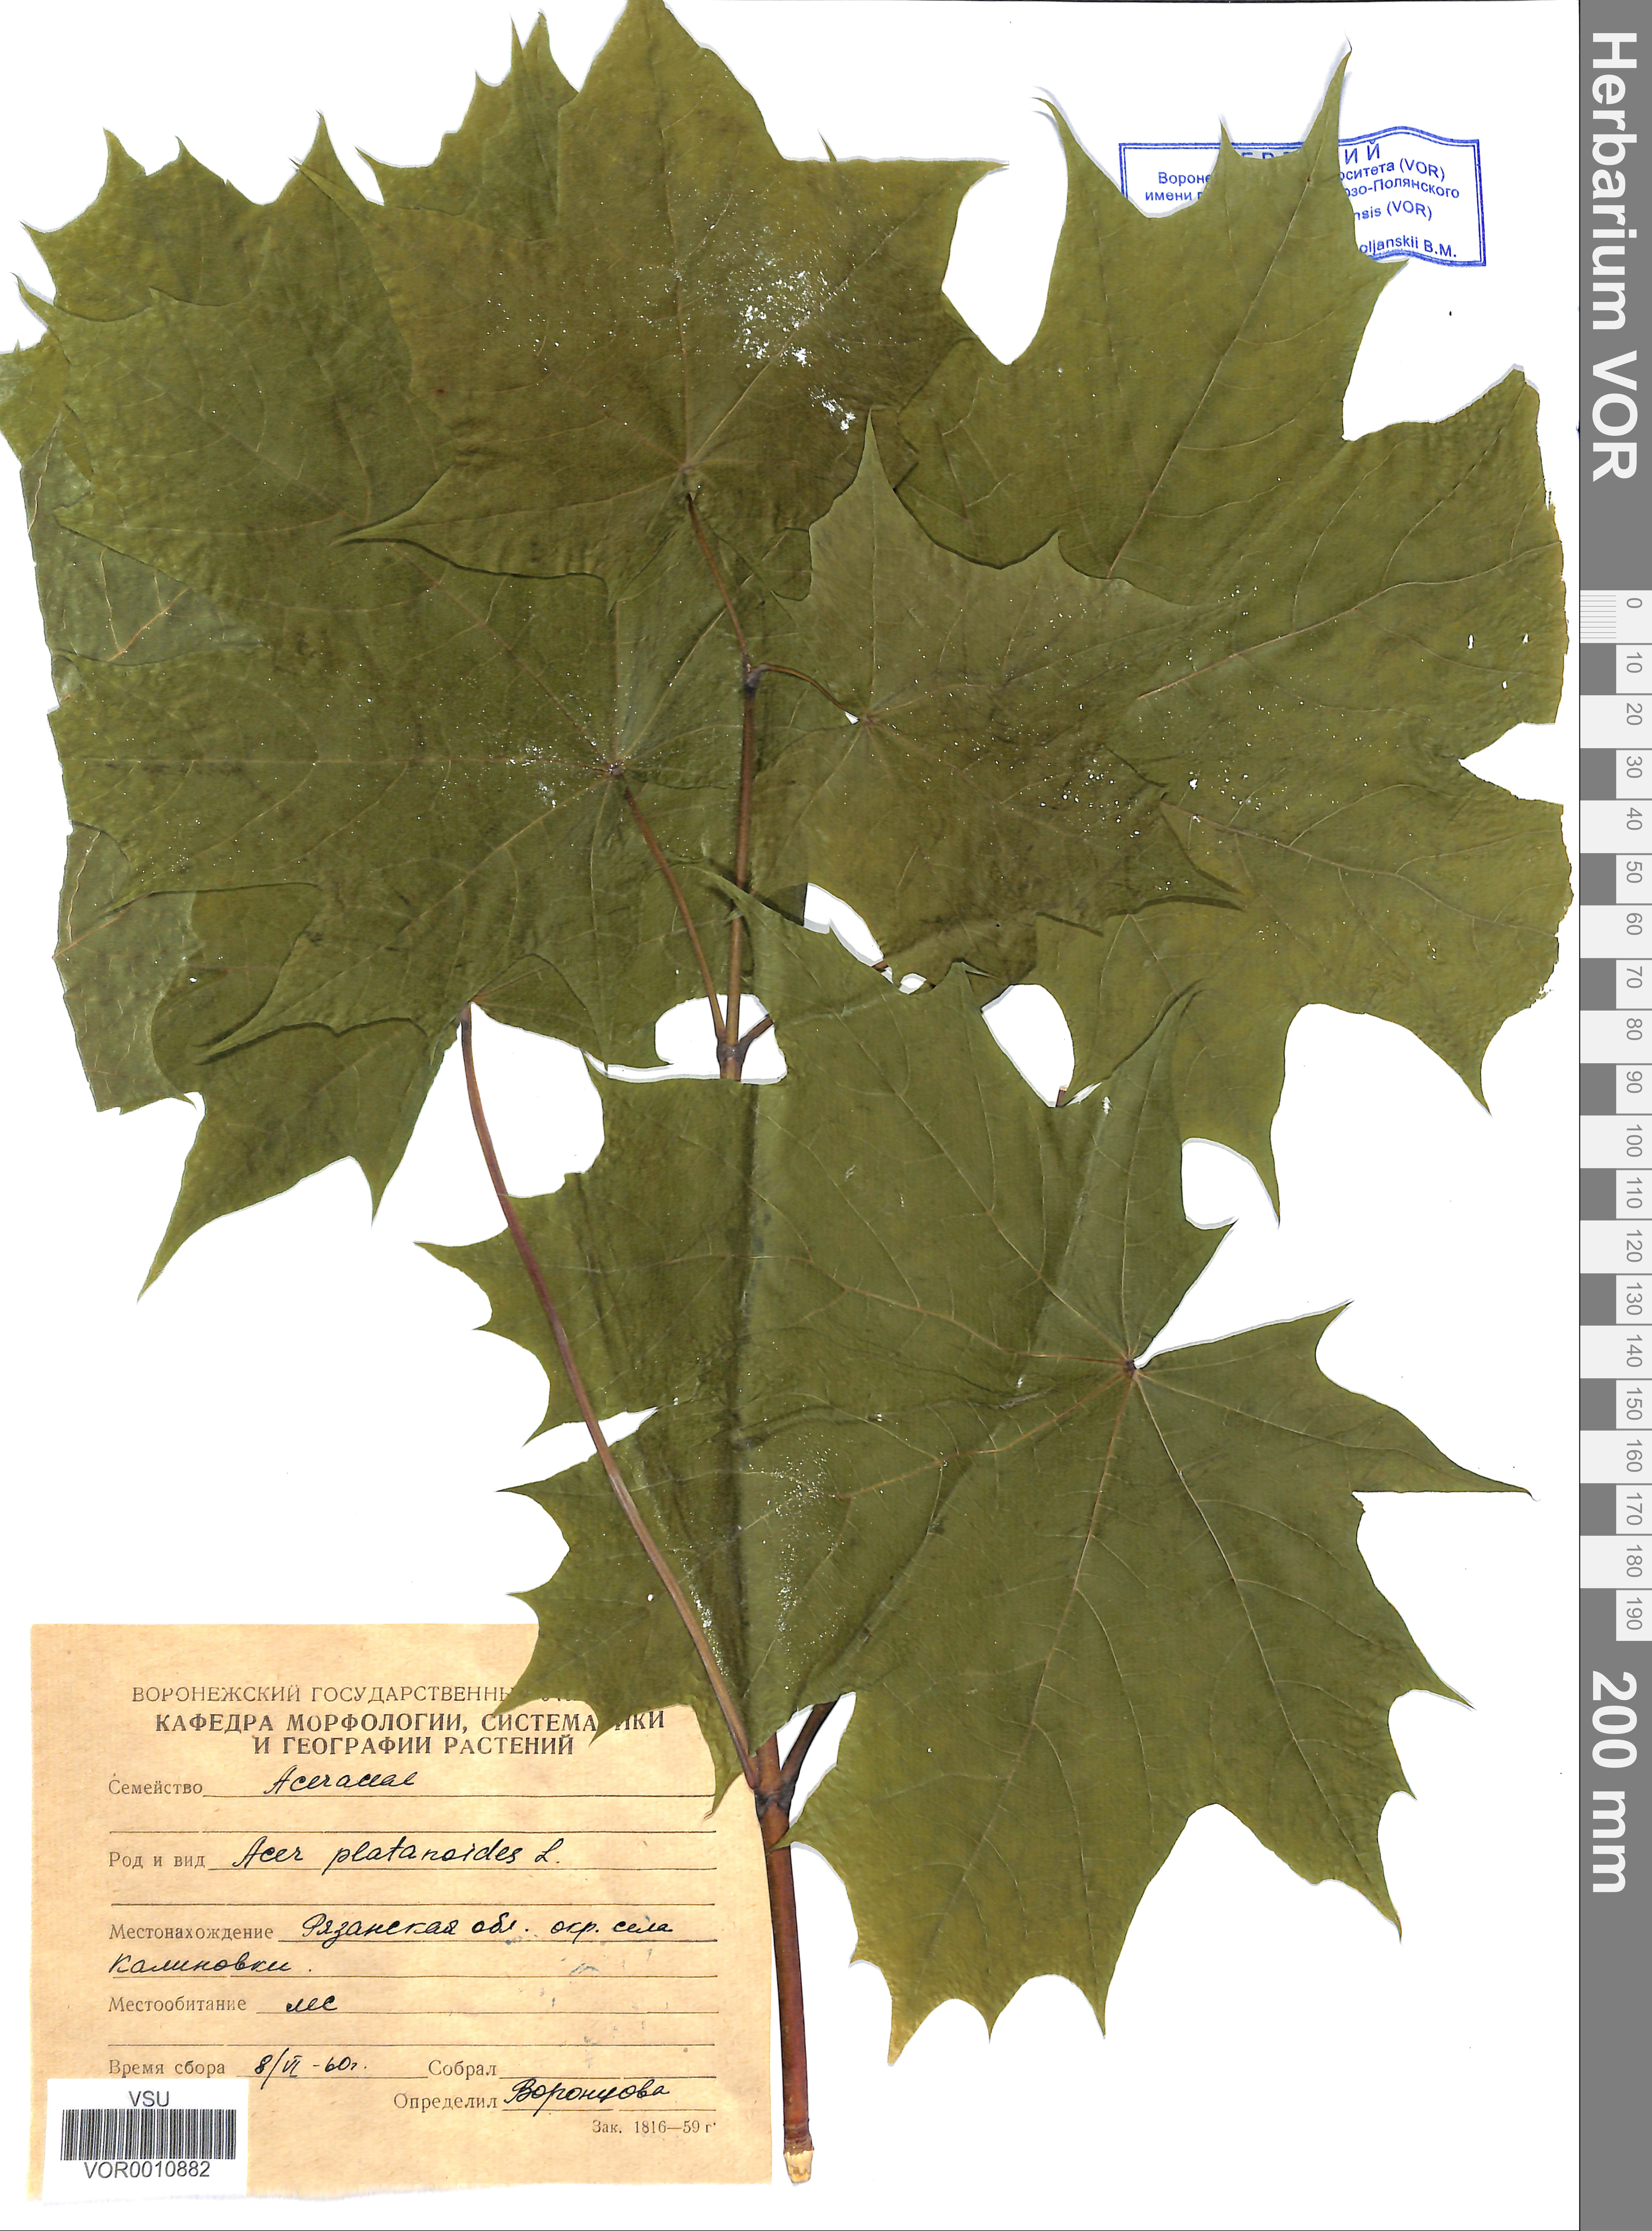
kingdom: Plantae
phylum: Tracheophyta
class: Magnoliopsida
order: Sapindales
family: Sapindaceae
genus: Acer
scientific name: Acer platanoides
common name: Norway maple
